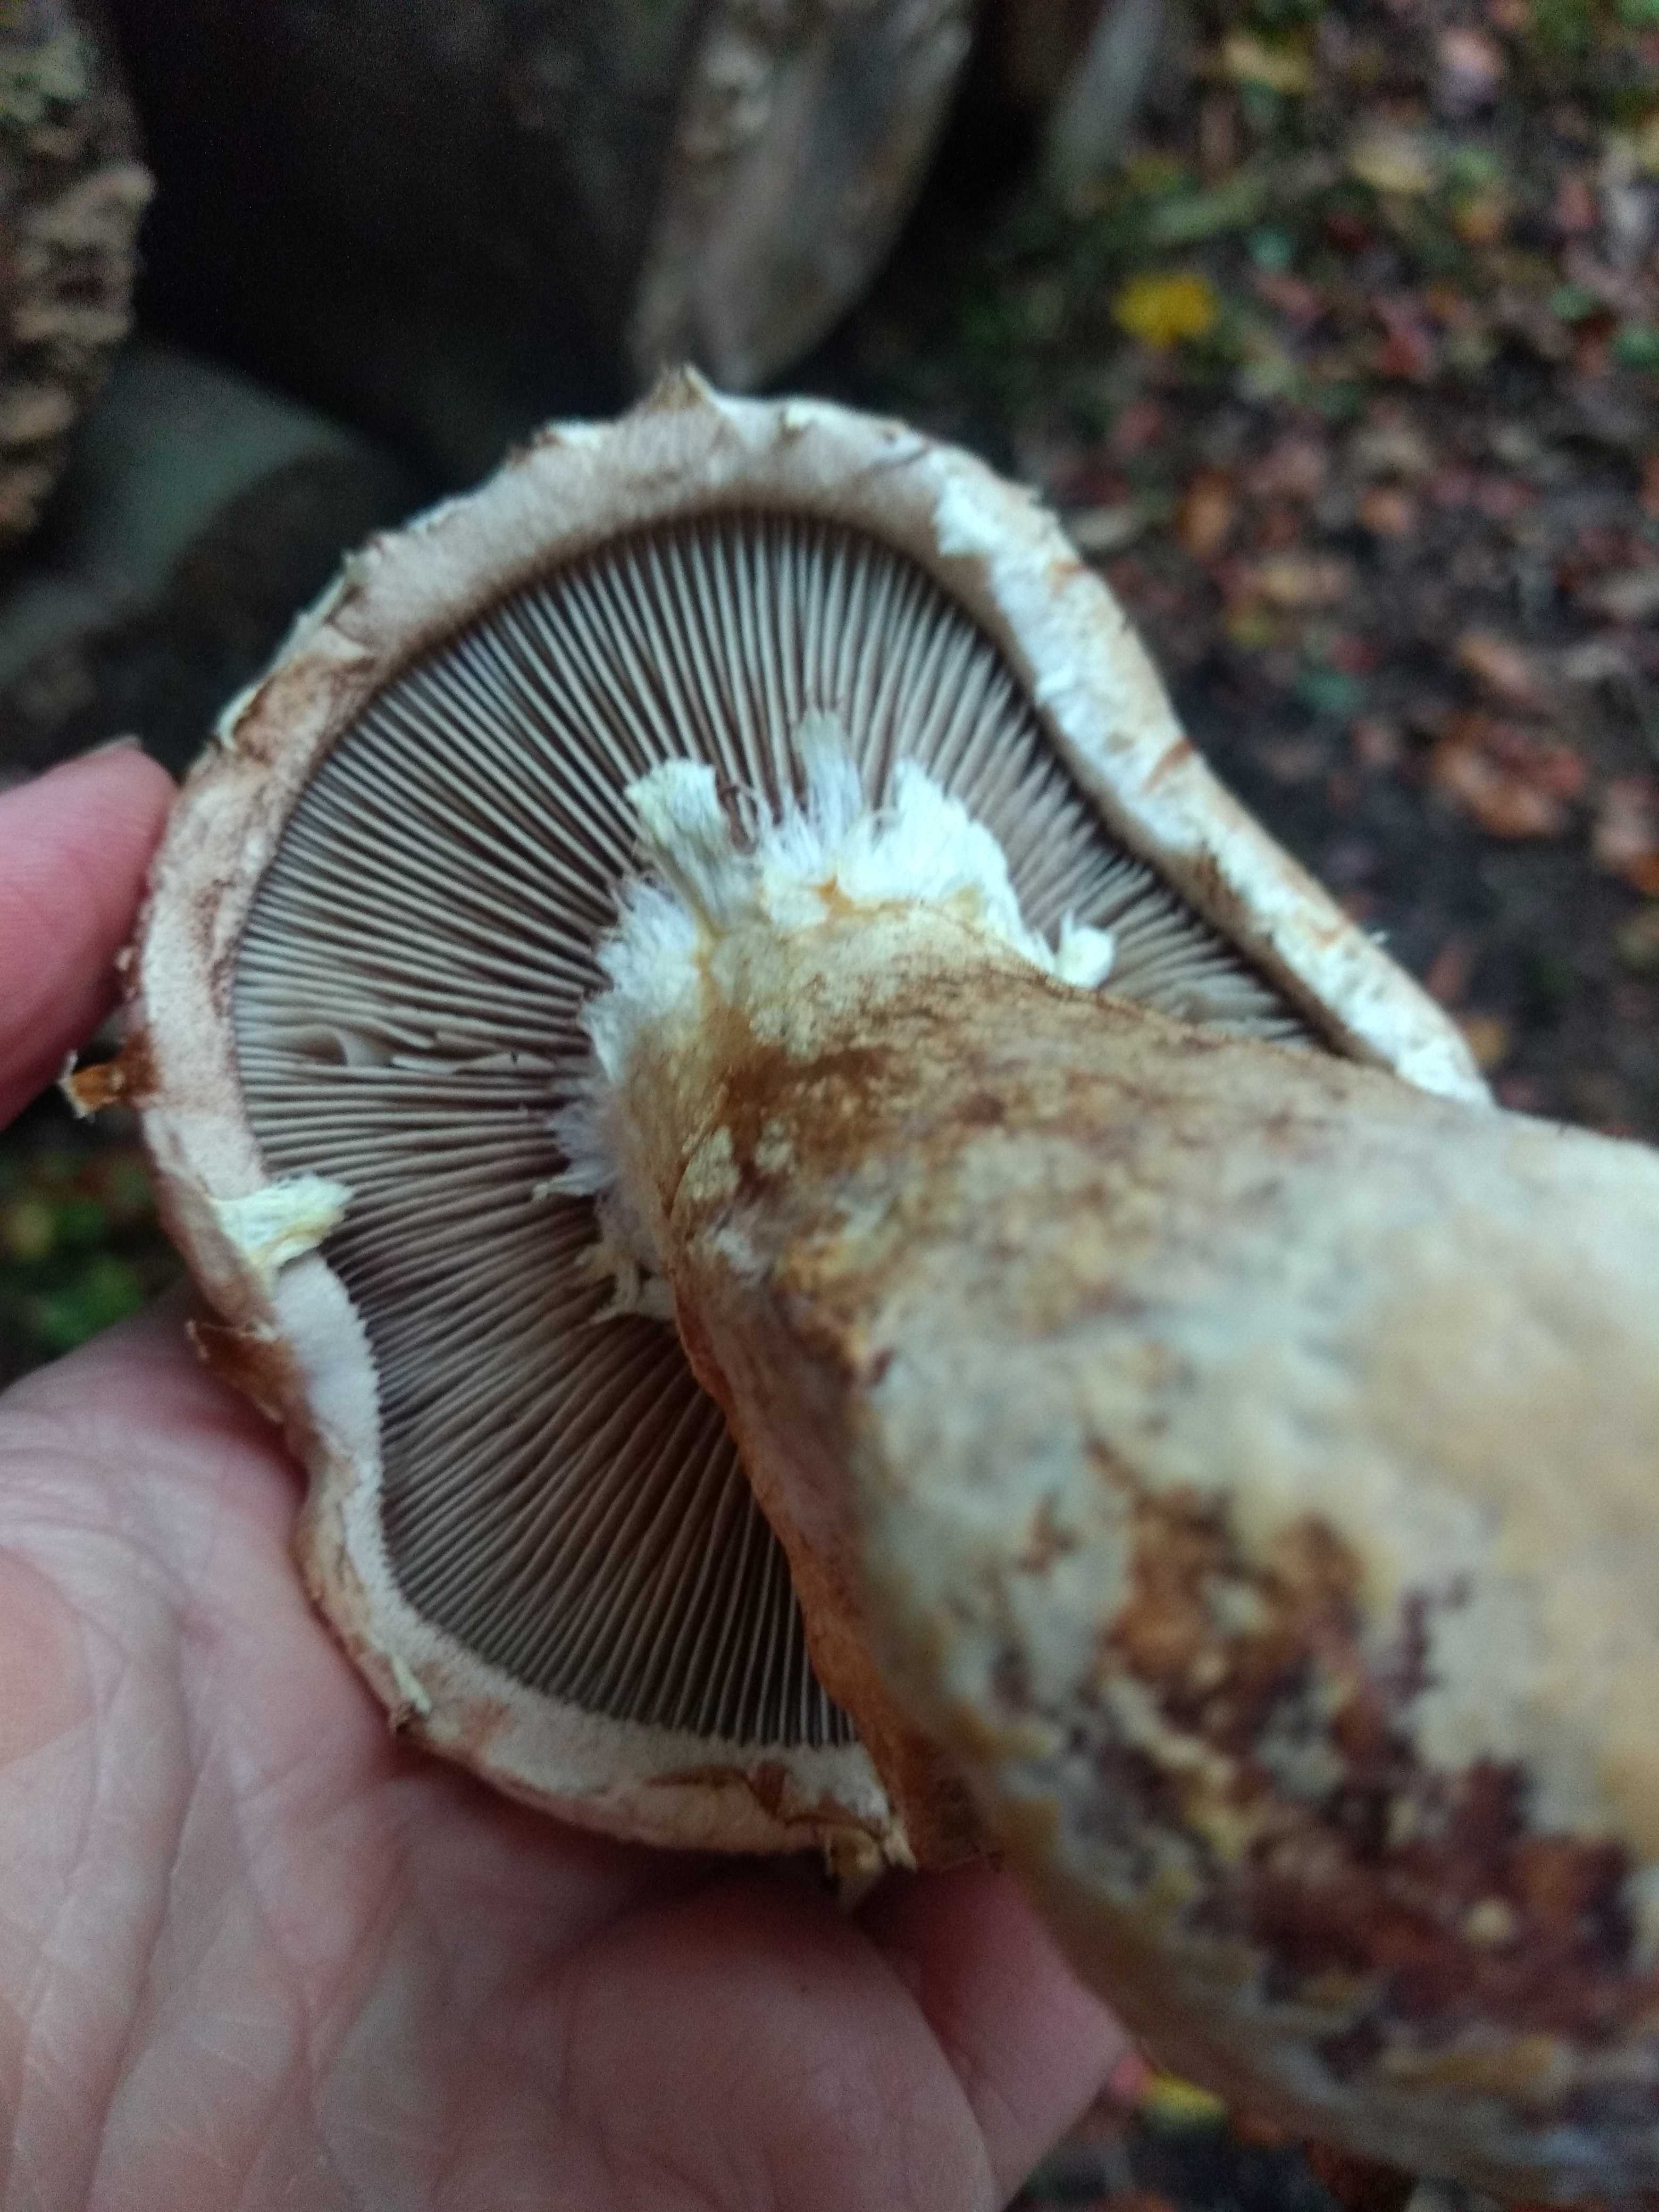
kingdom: Fungi
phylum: Basidiomycota
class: Agaricomycetes
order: Agaricales
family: Strophariaceae
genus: Pholiota
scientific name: Pholiota populnea
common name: poppel-kæmpeskælhat
